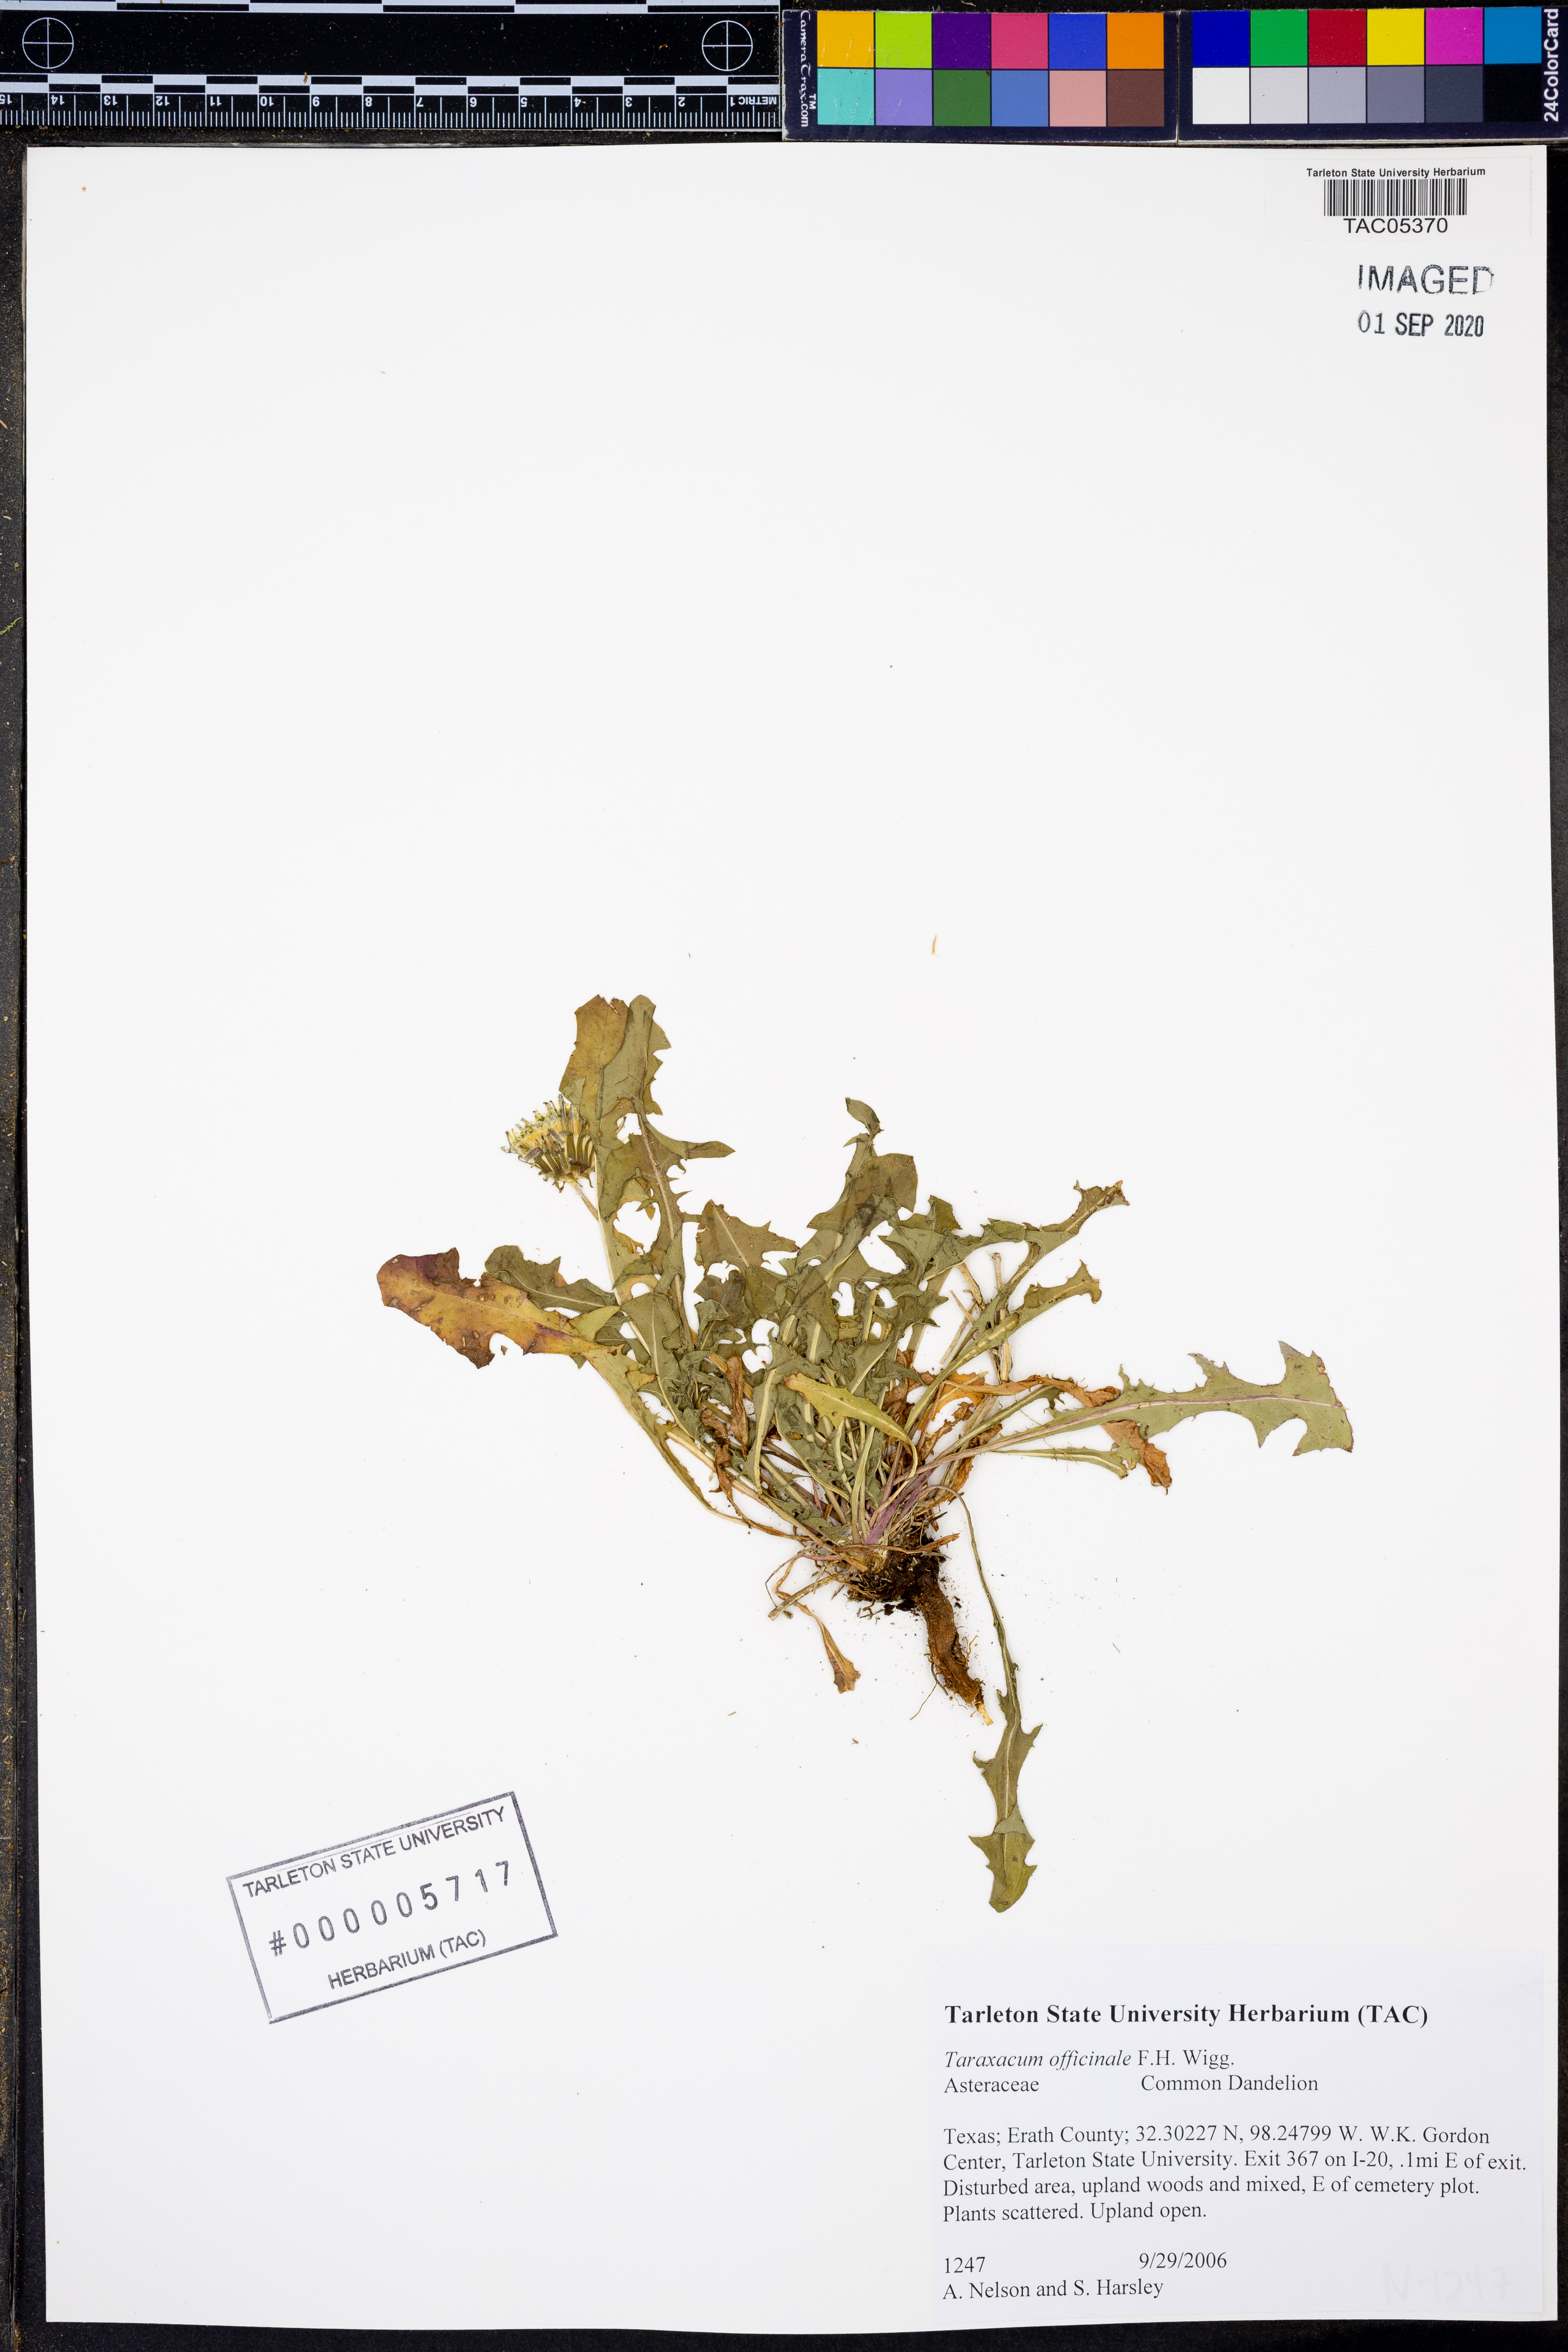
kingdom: Plantae
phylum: Tracheophyta
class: Magnoliopsida
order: Asterales
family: Asteraceae
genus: Taraxacum
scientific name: Taraxacum officinale
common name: Common dandelion
